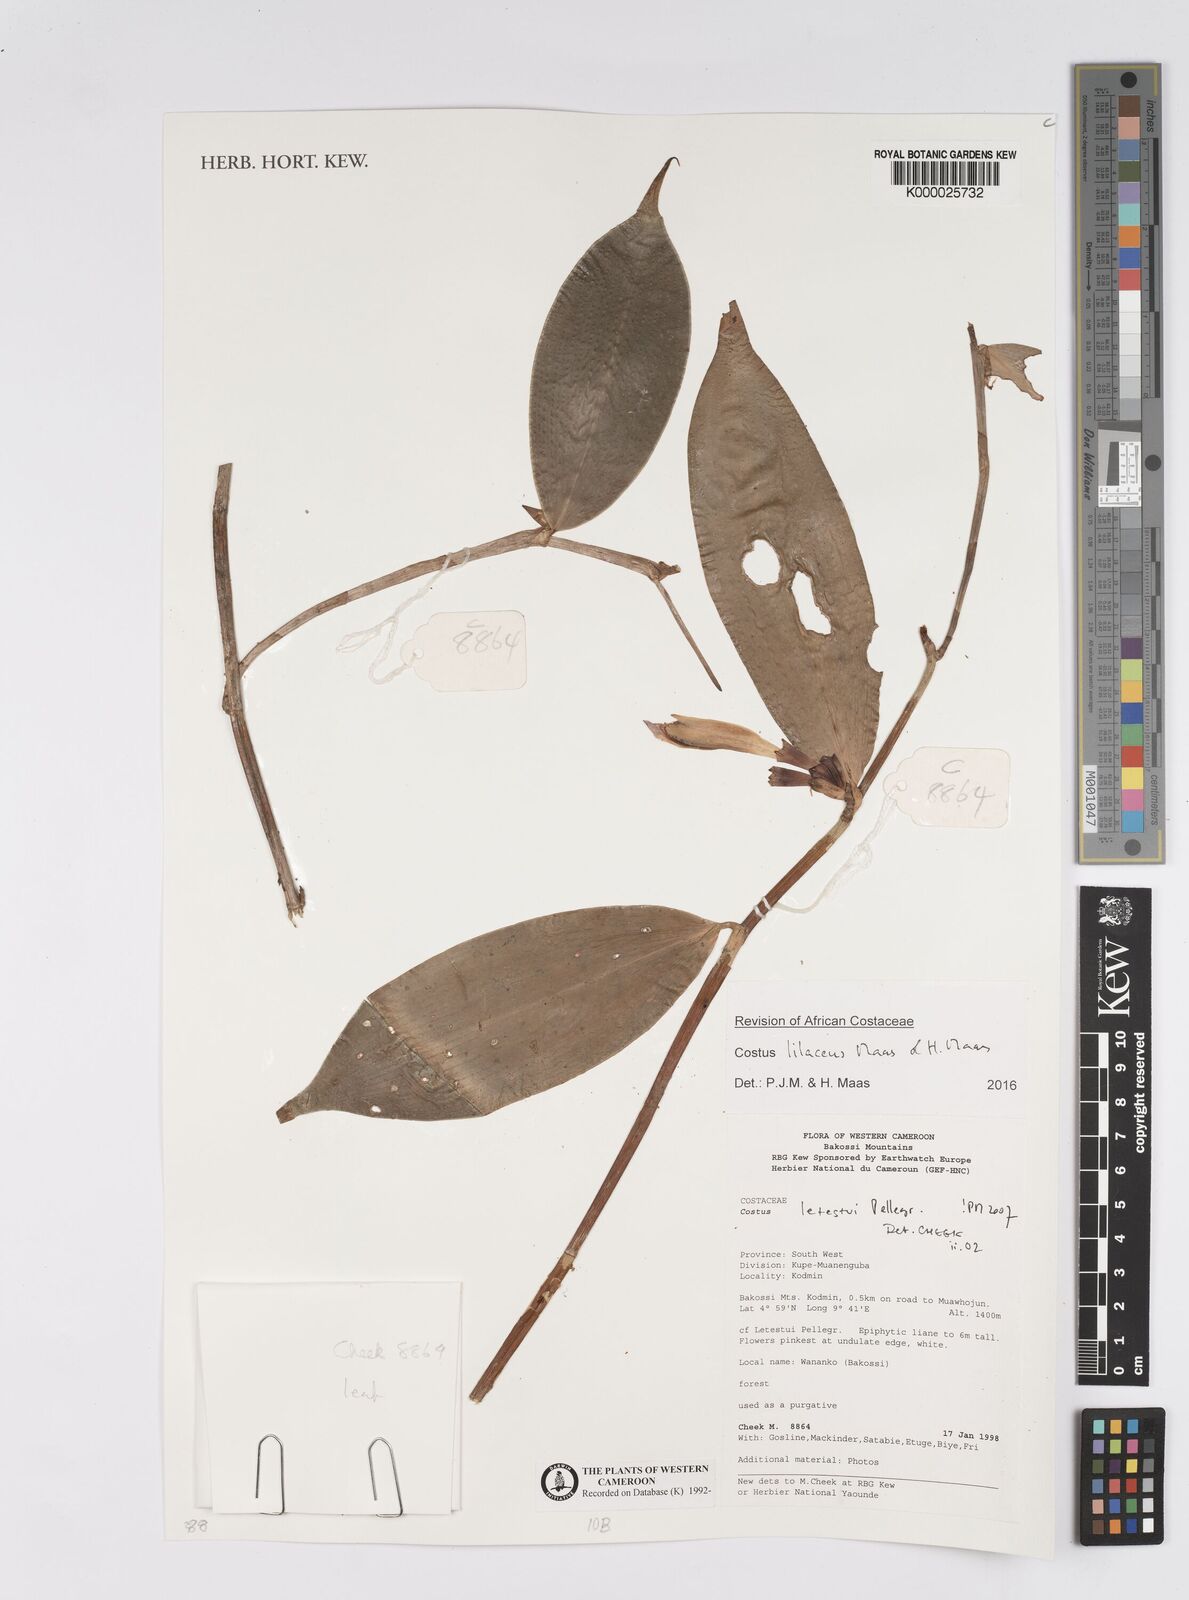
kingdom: Plantae
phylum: Tracheophyta
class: Liliopsida
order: Zingiberales
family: Costaceae
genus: Costus
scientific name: Costus lilaceus
